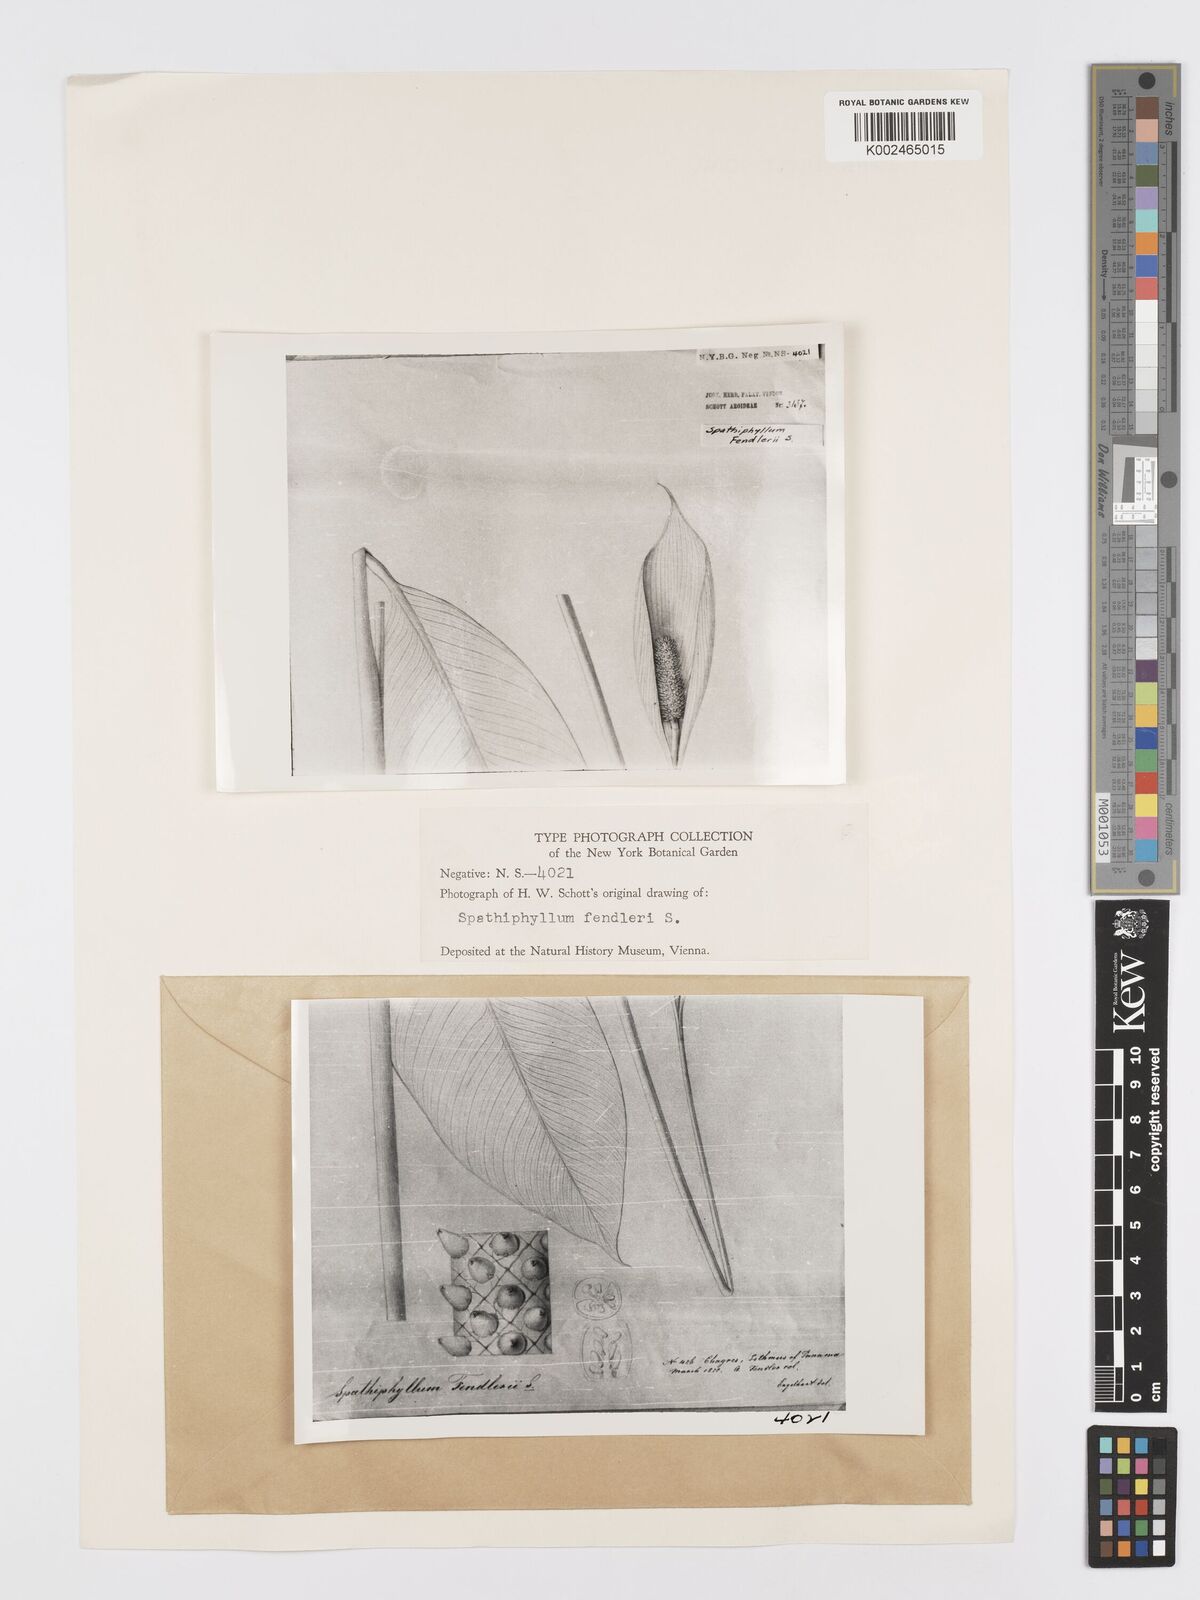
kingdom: Plantae
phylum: Tracheophyta
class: Liliopsida
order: Alismatales
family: Araceae
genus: Spathiphyllum
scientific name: Spathiphyllum friedrichsthalii
